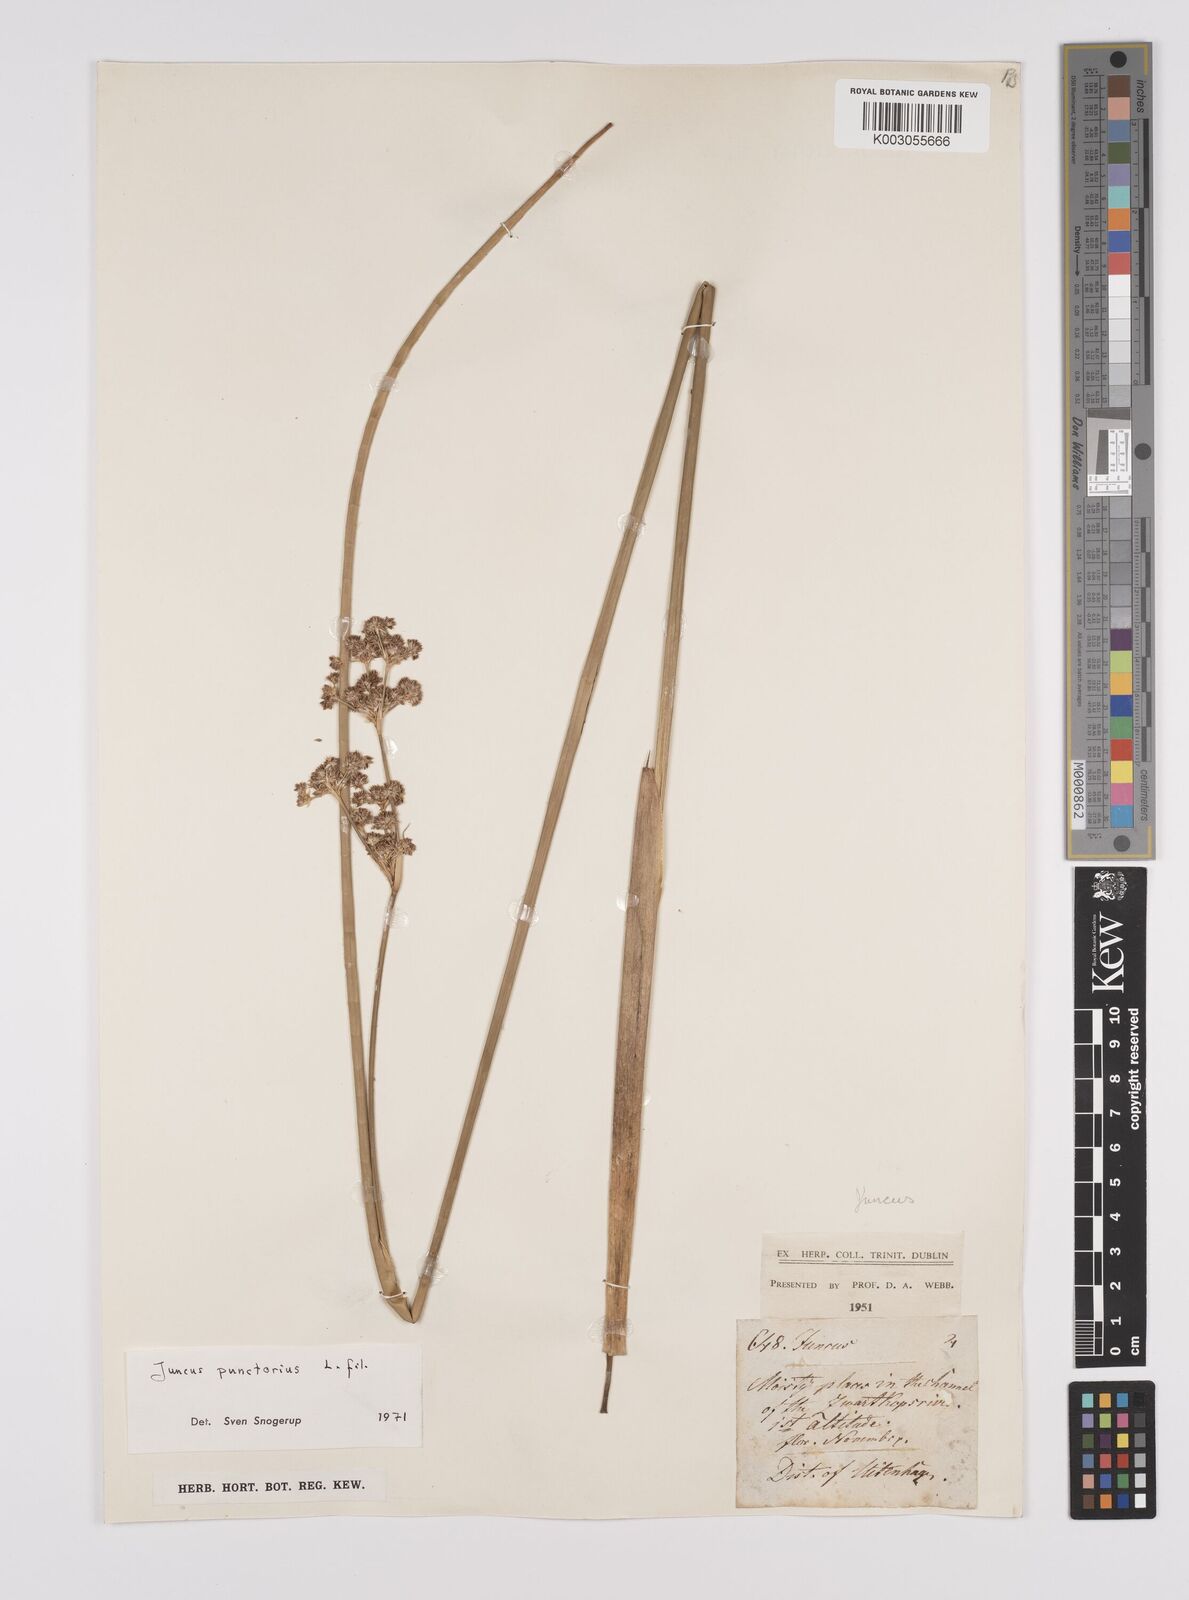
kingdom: Plantae
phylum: Tracheophyta
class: Liliopsida
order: Poales
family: Juncaceae
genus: Juncus
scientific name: Juncus punctorius
